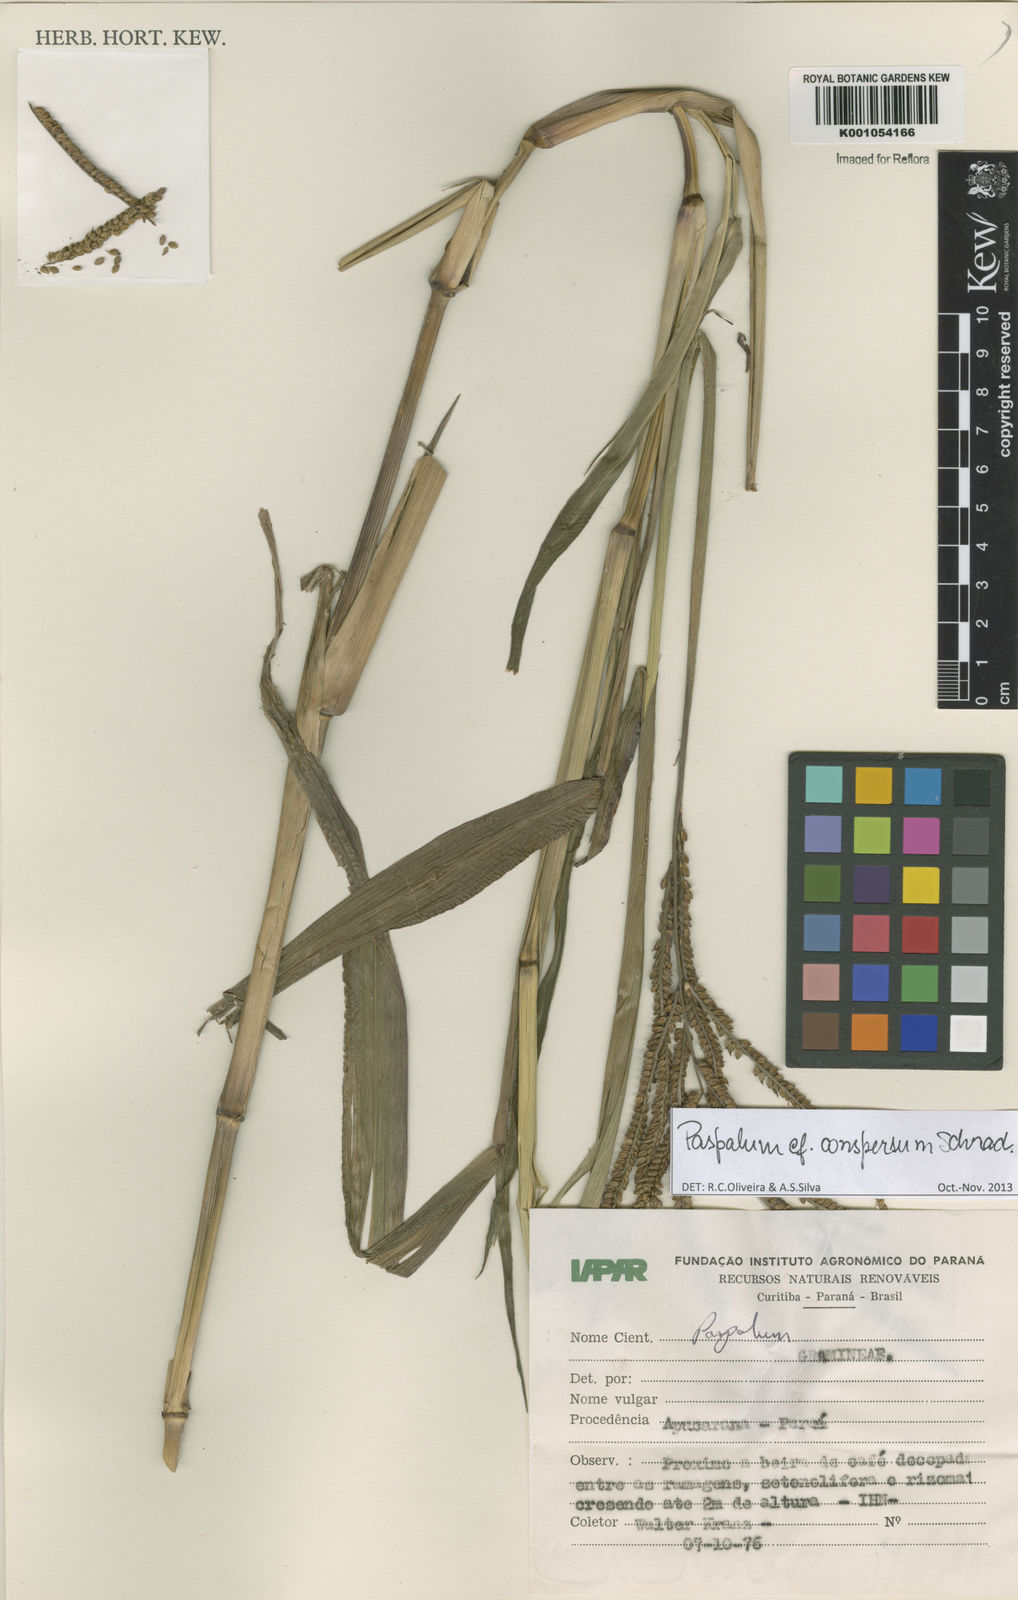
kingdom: Plantae
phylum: Tracheophyta
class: Liliopsida
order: Poales
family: Poaceae
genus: Paspalum
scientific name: Paspalum conspersum
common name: Scattered paspalum
